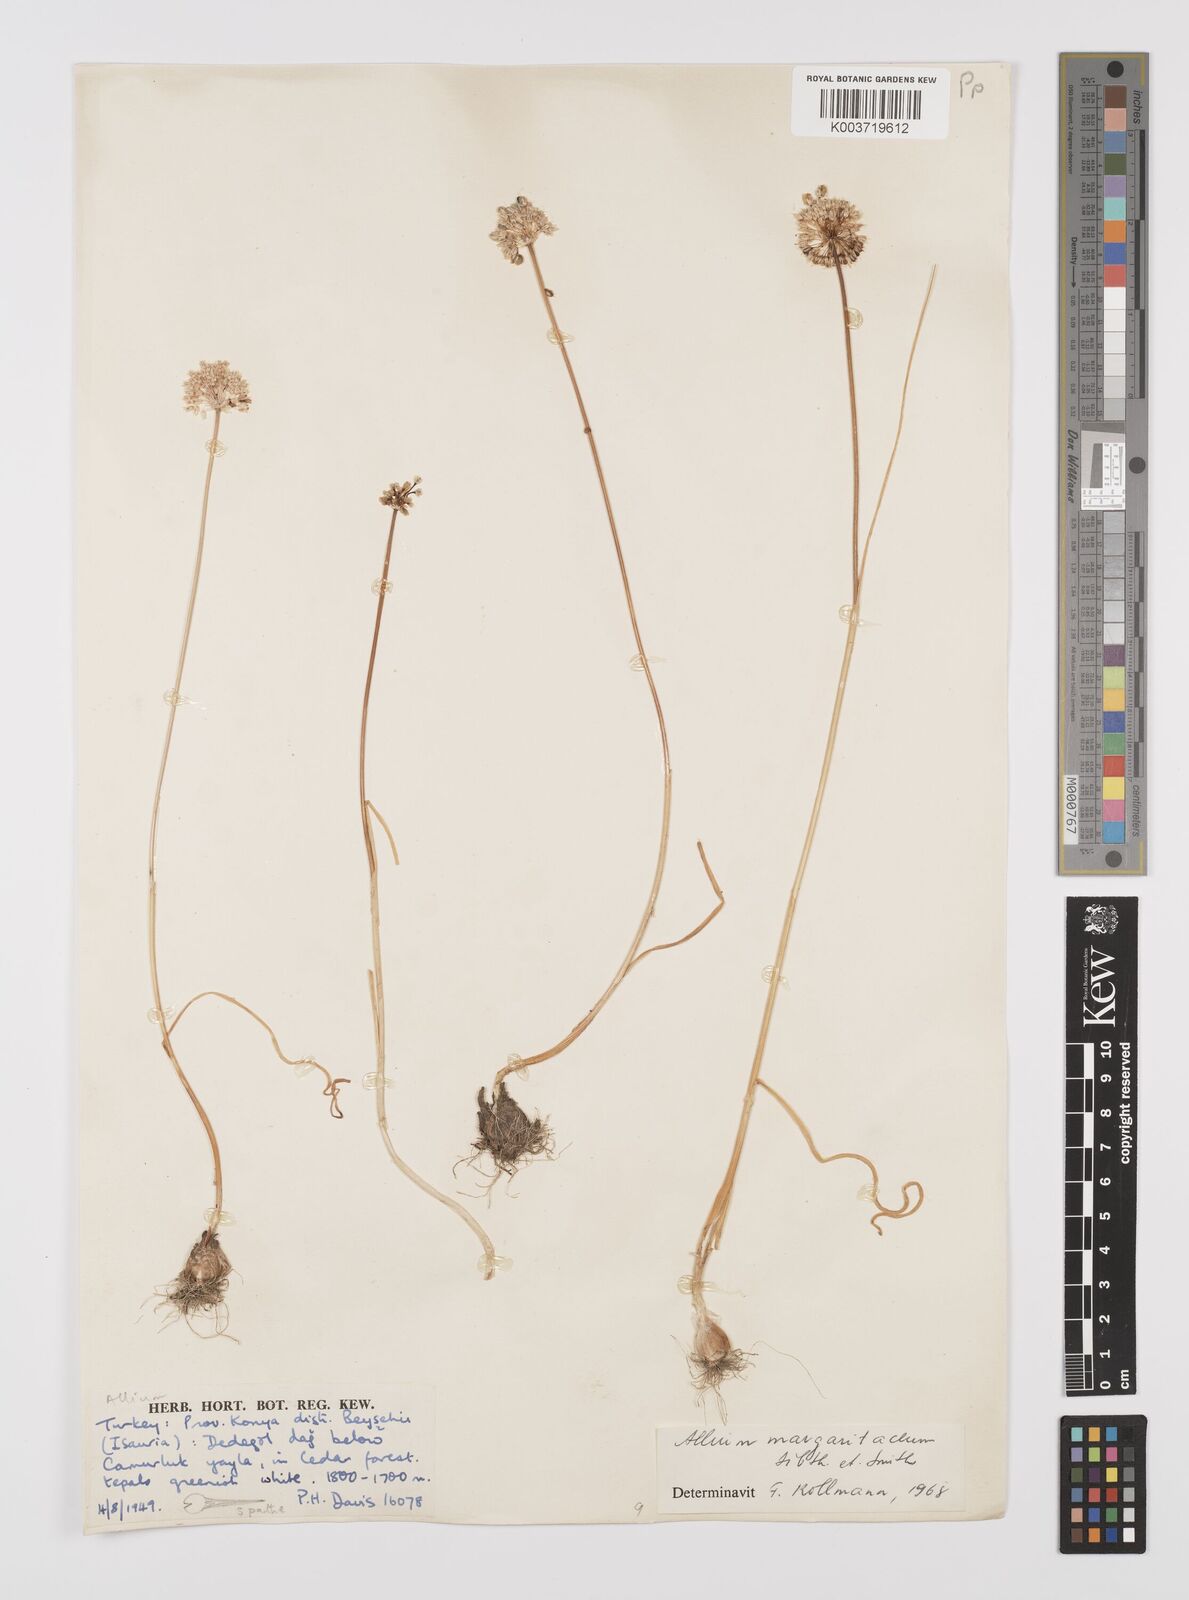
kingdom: Plantae
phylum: Tracheophyta
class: Liliopsida
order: Asparagales
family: Amaryllidaceae
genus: Allium
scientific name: Allium guttatum
